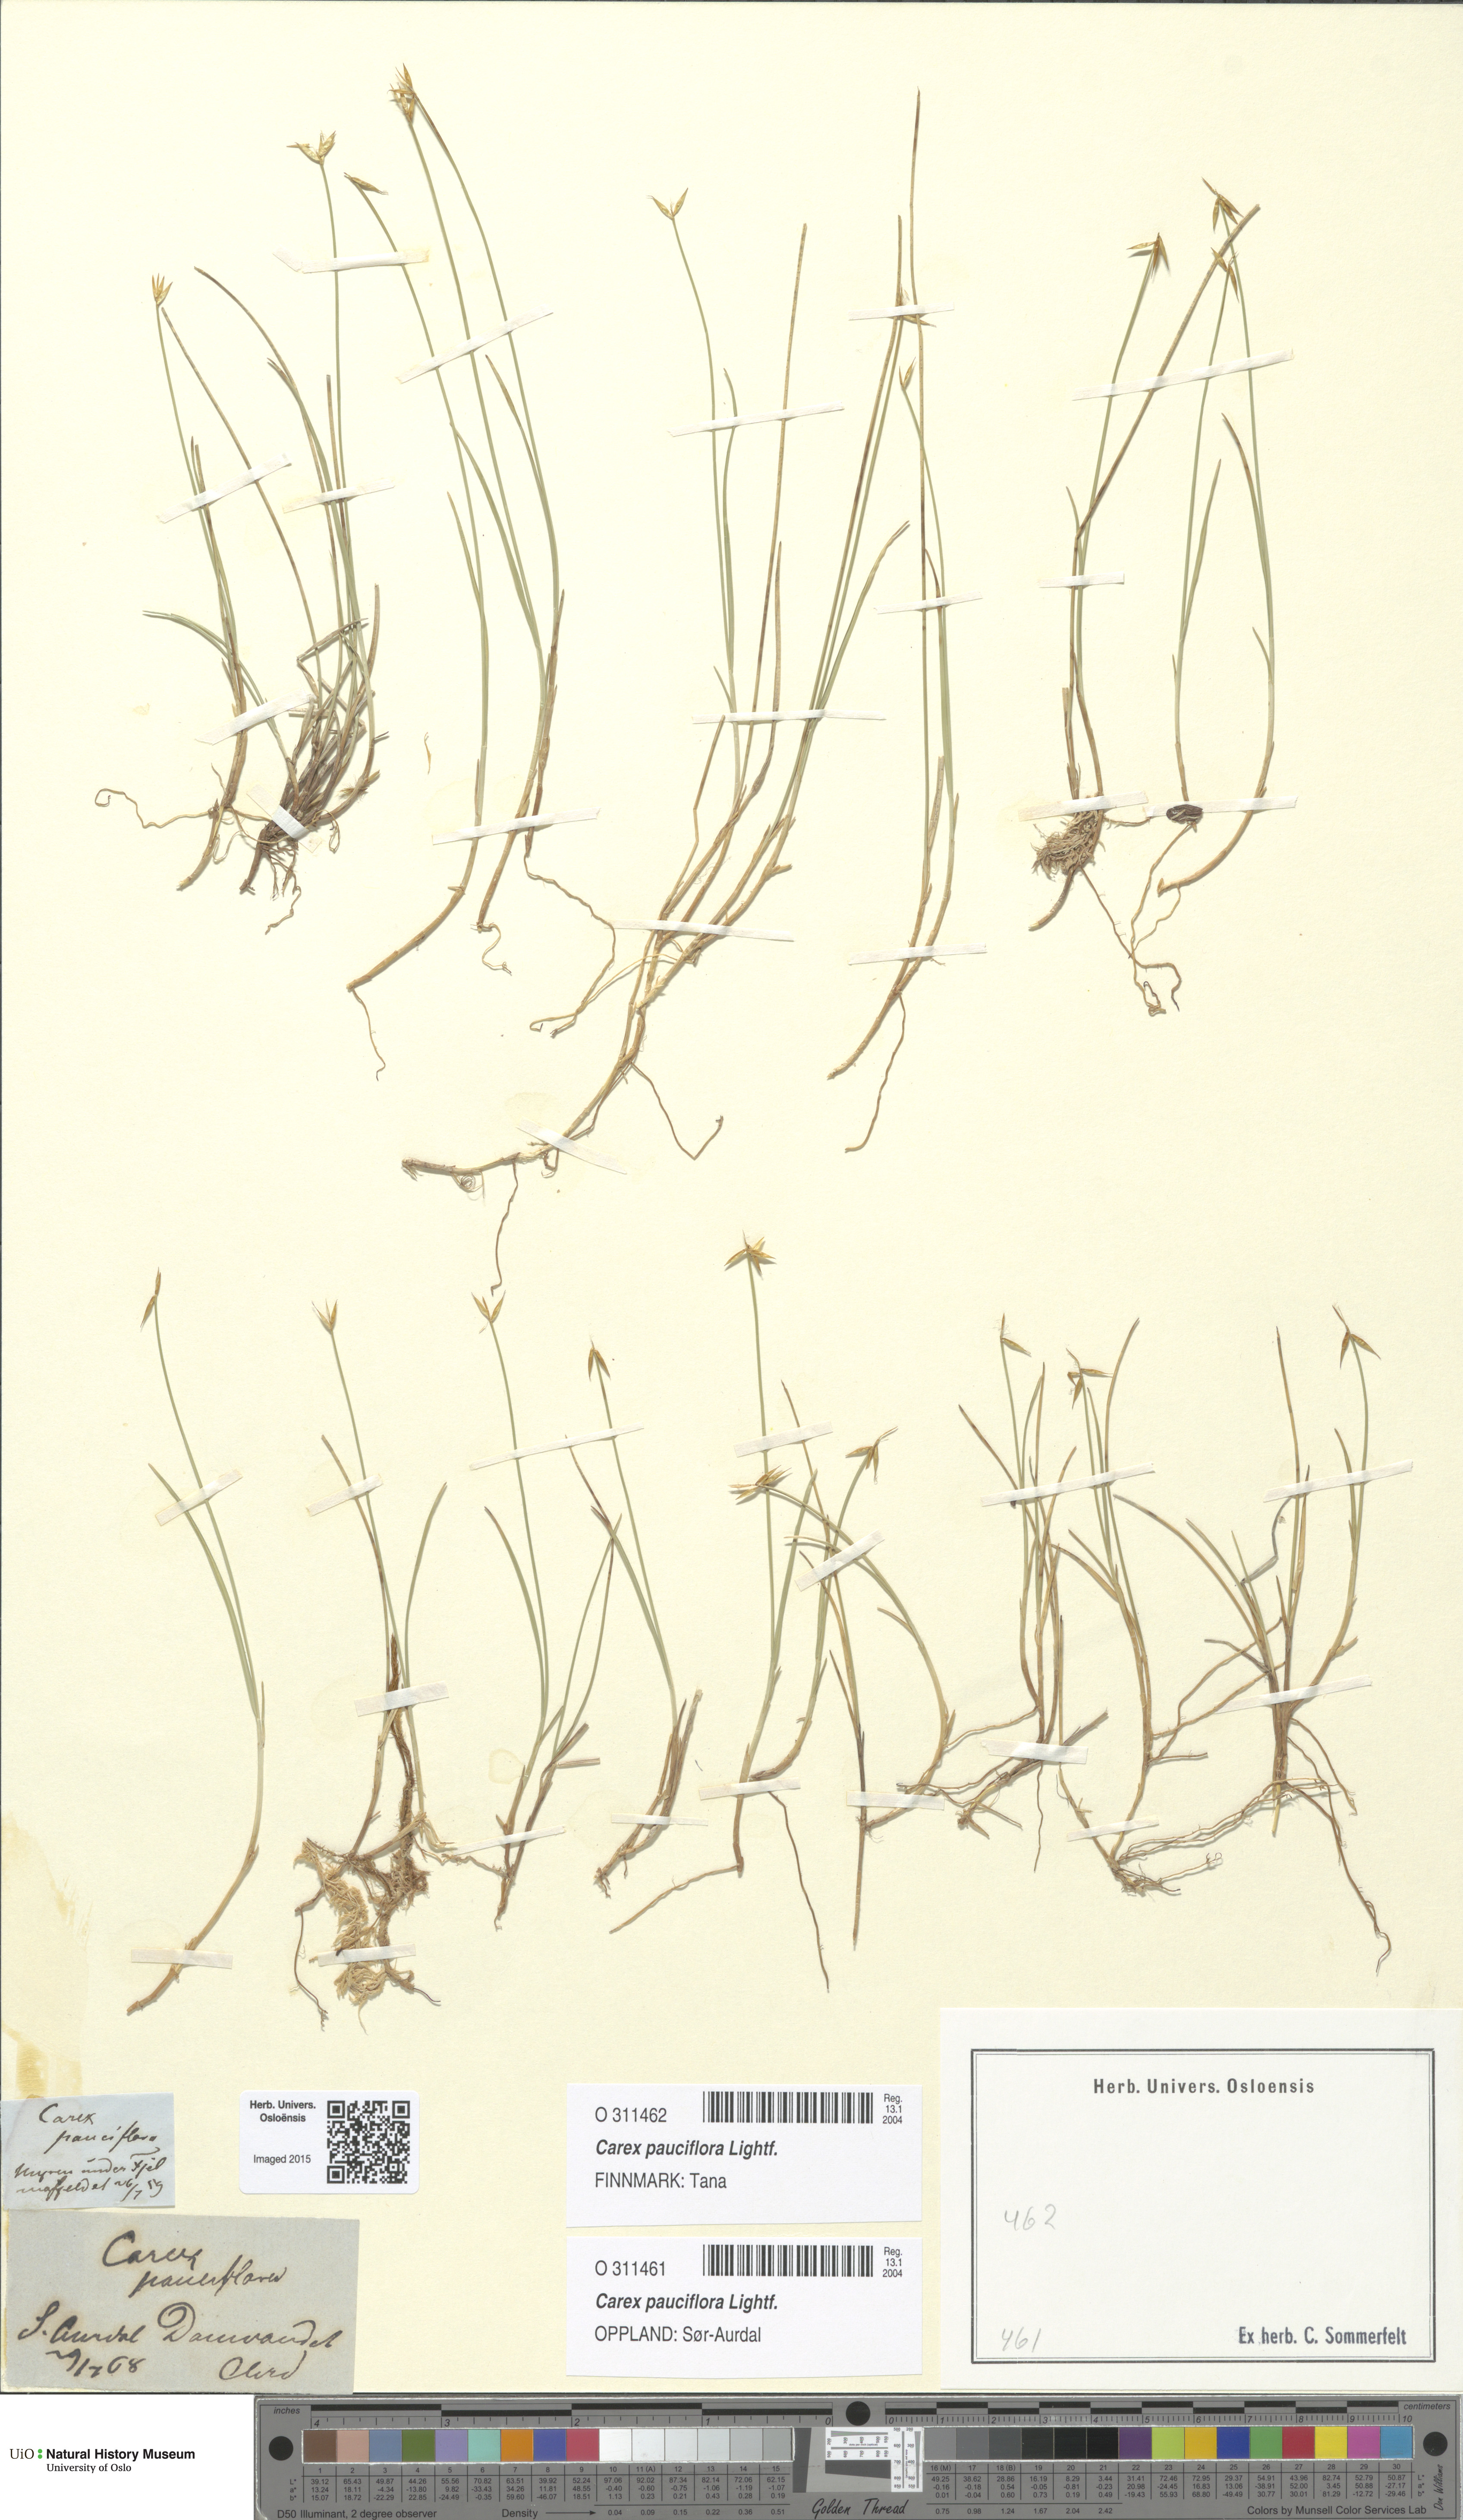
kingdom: Plantae
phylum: Tracheophyta
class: Liliopsida
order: Poales
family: Cyperaceae
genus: Carex
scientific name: Carex pauciflora
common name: Few-flowered sedge
